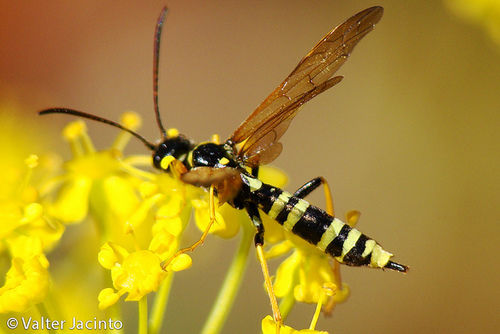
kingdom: Animalia
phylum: Arthropoda
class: Insecta
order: Hymenoptera
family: Cephidae
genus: Trachelus
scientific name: Trachelus flavicornis
